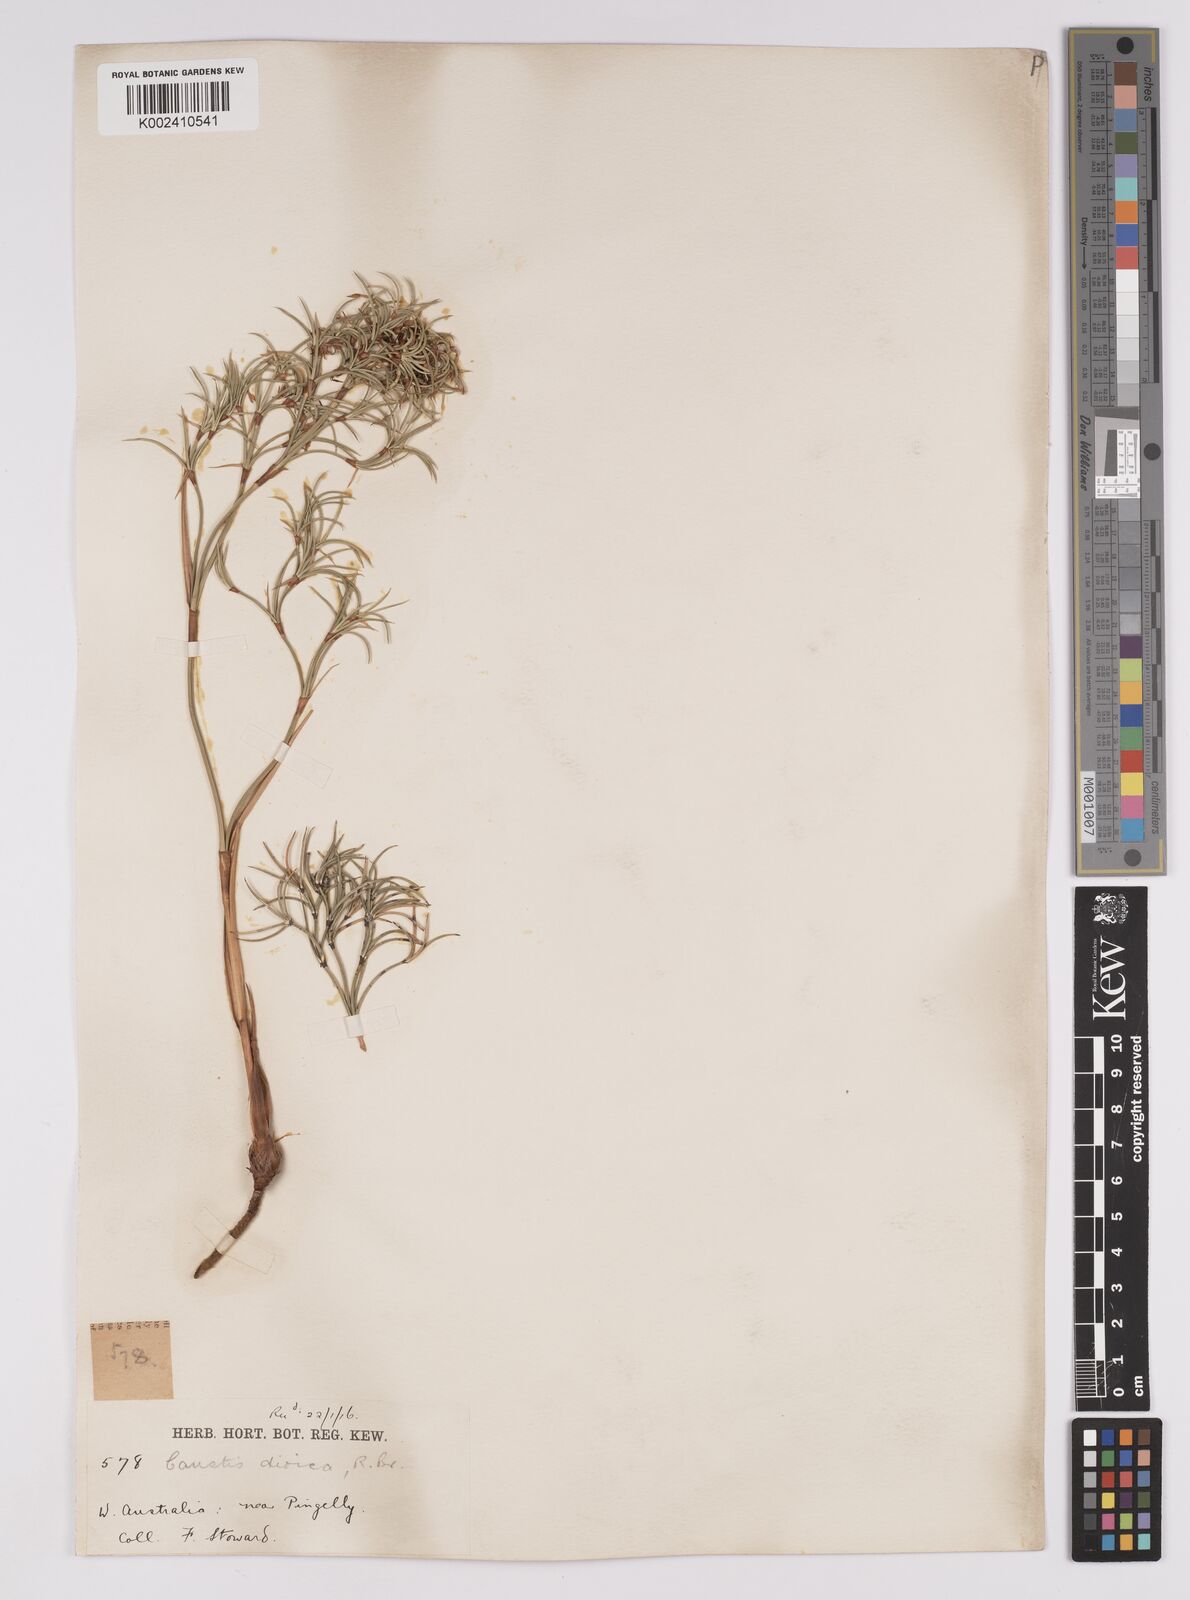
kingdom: Plantae
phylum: Tracheophyta
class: Liliopsida
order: Poales
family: Cyperaceae
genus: Caustis
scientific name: Caustis dioica
